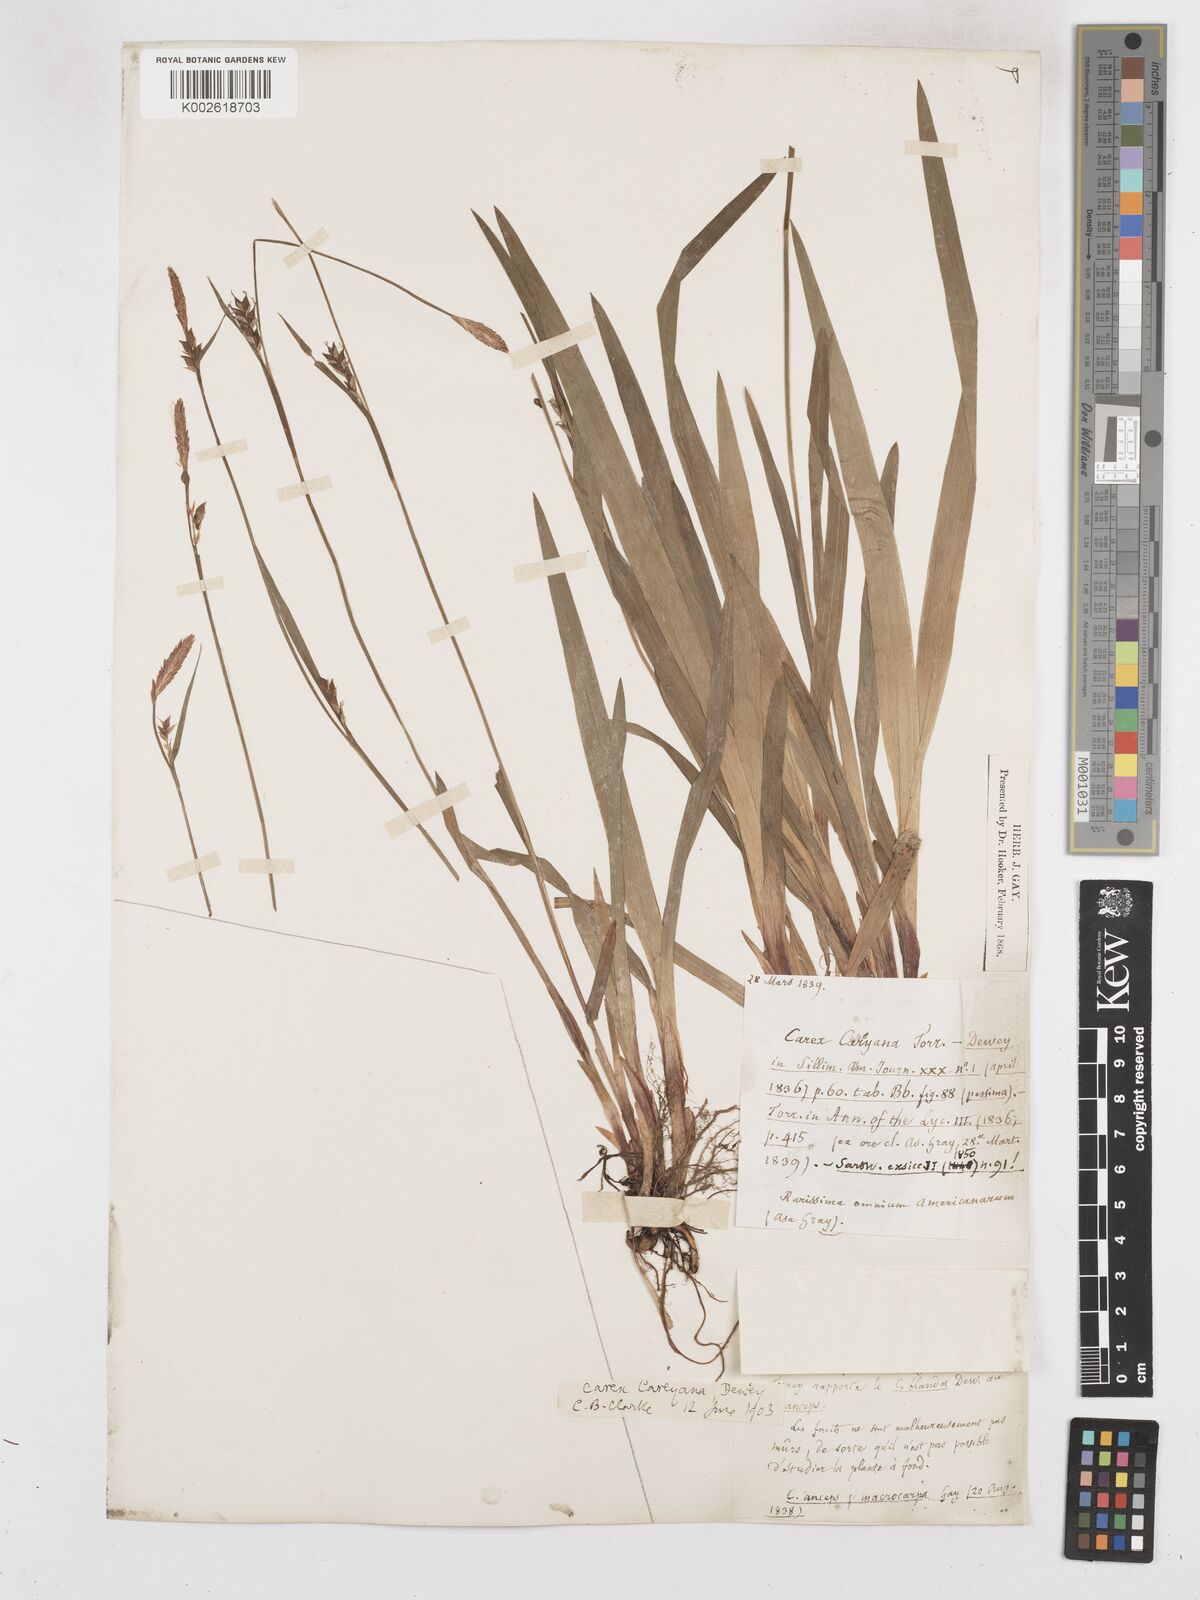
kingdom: Plantae
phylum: Tracheophyta
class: Liliopsida
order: Poales
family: Cyperaceae
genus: Carex
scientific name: Carex careyana
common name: Carey's sedge
